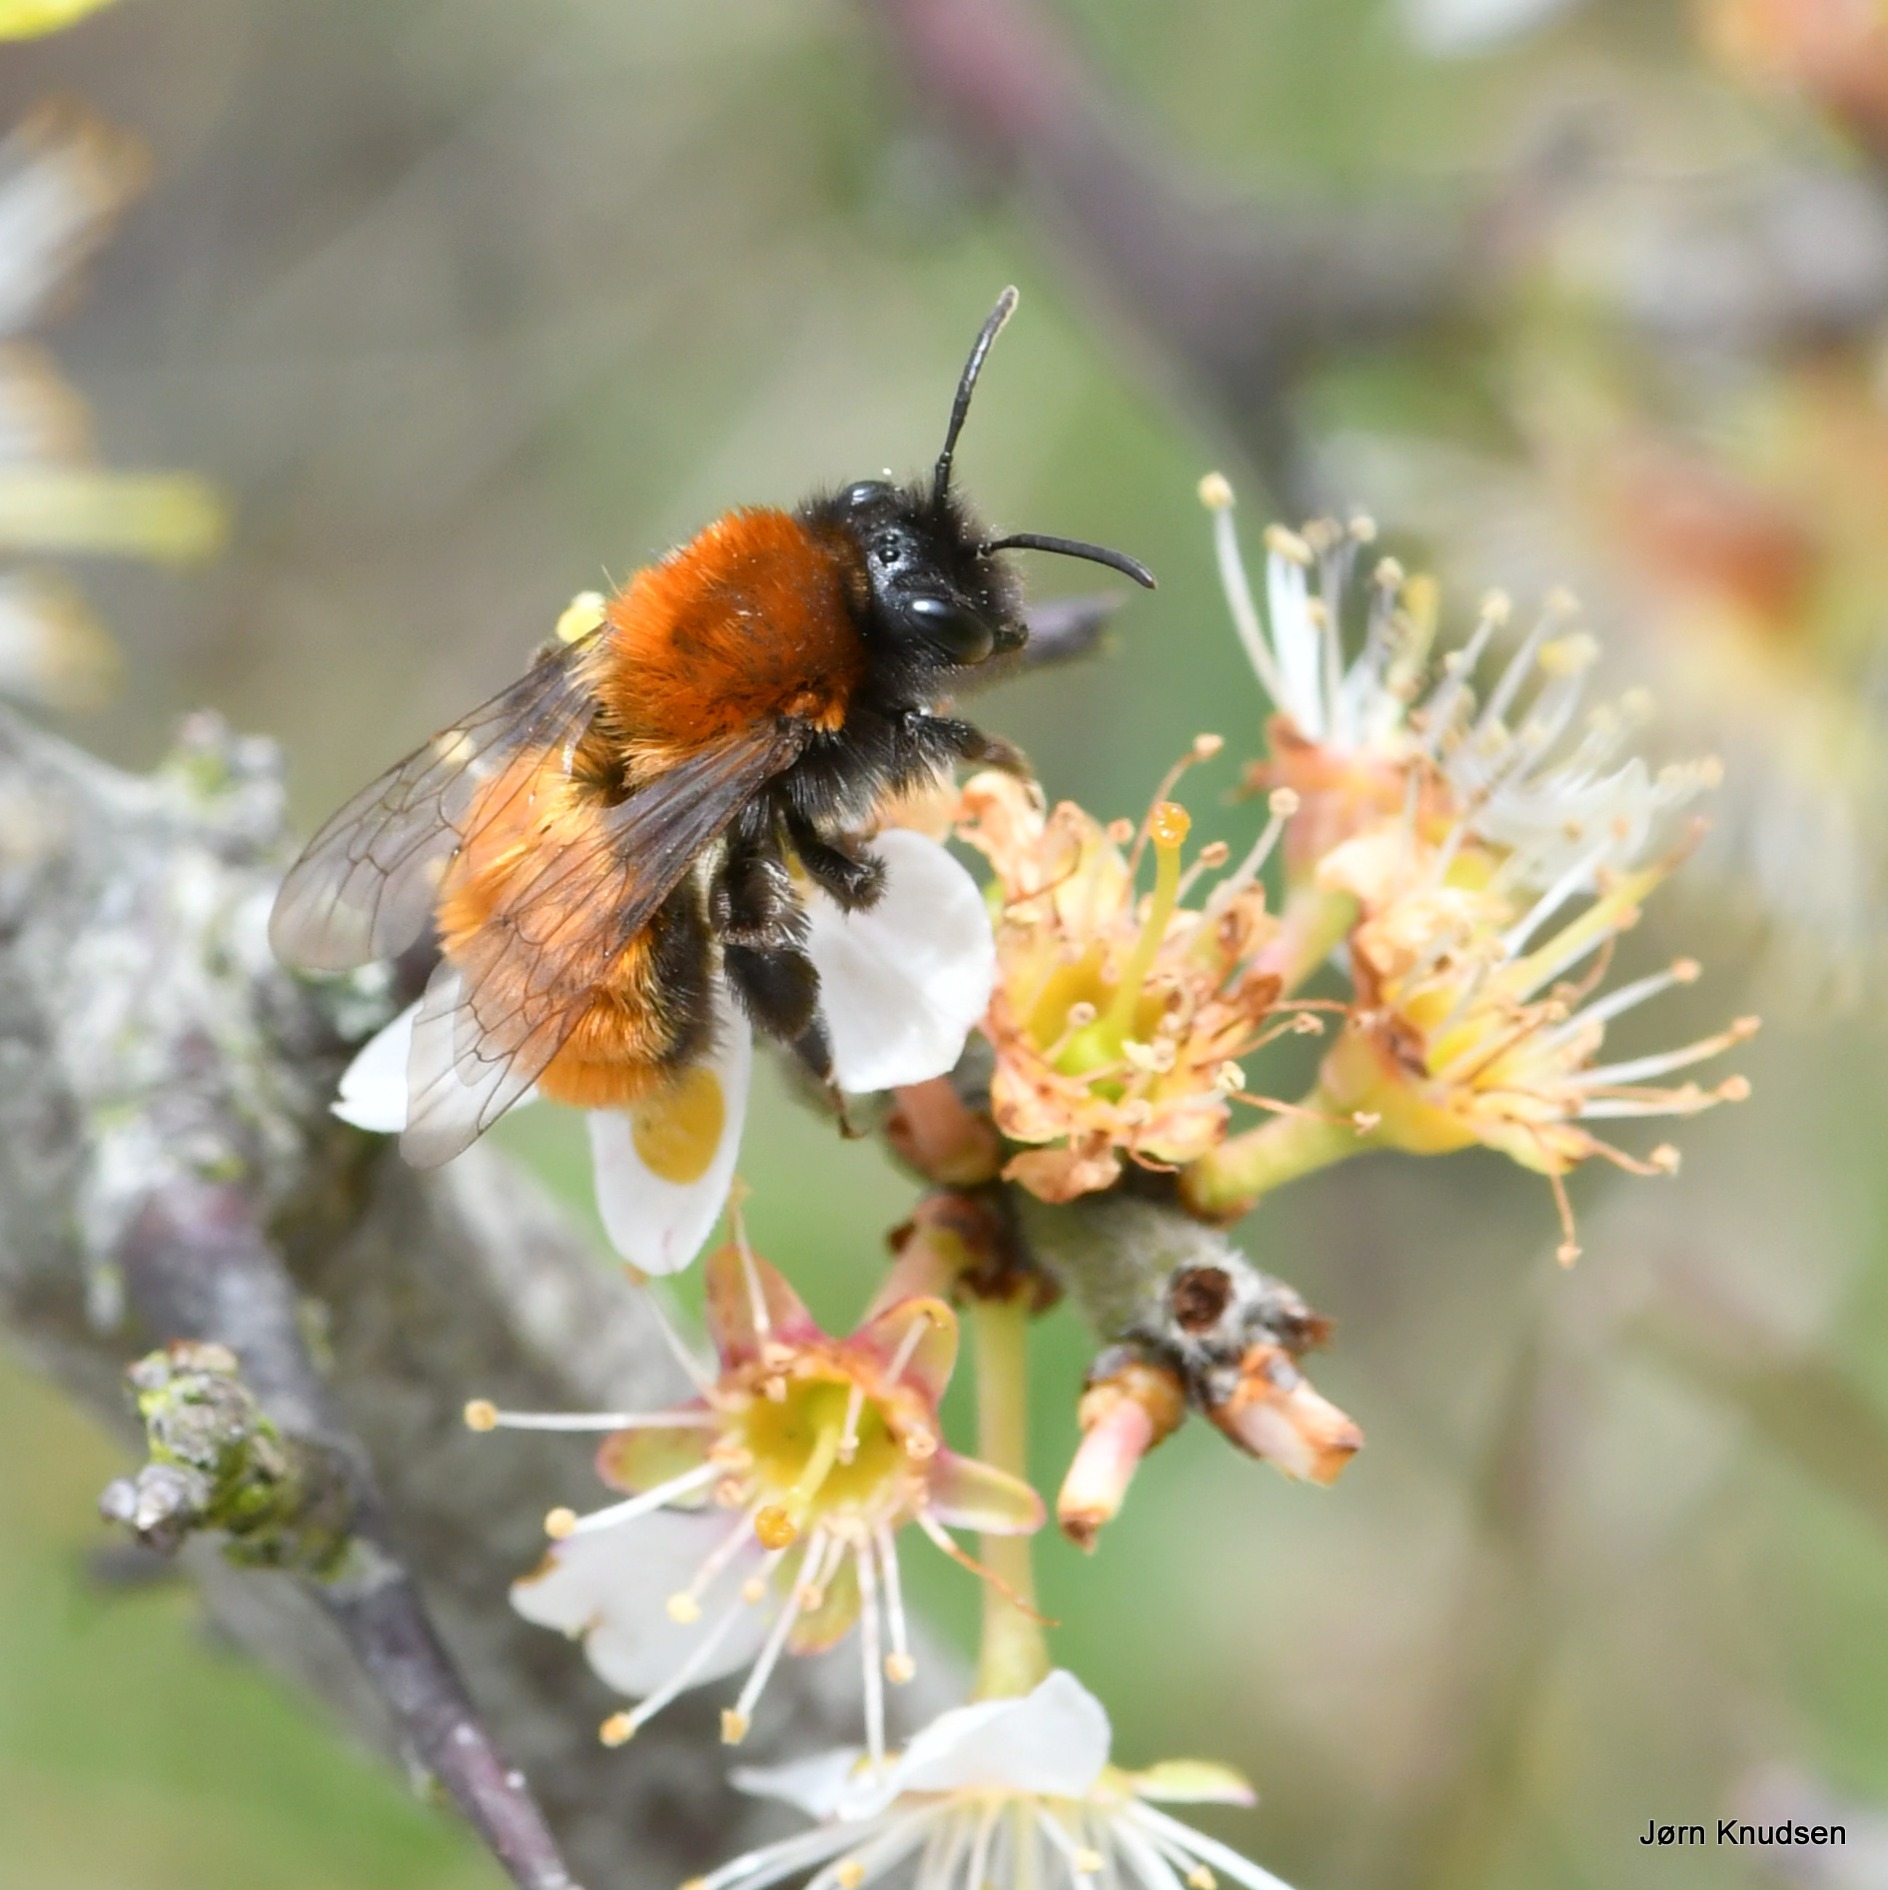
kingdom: Animalia
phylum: Arthropoda
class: Insecta
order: Hymenoptera
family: Andrenidae
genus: Andrena
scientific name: Andrena fulva
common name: Rødpelset jordbi
